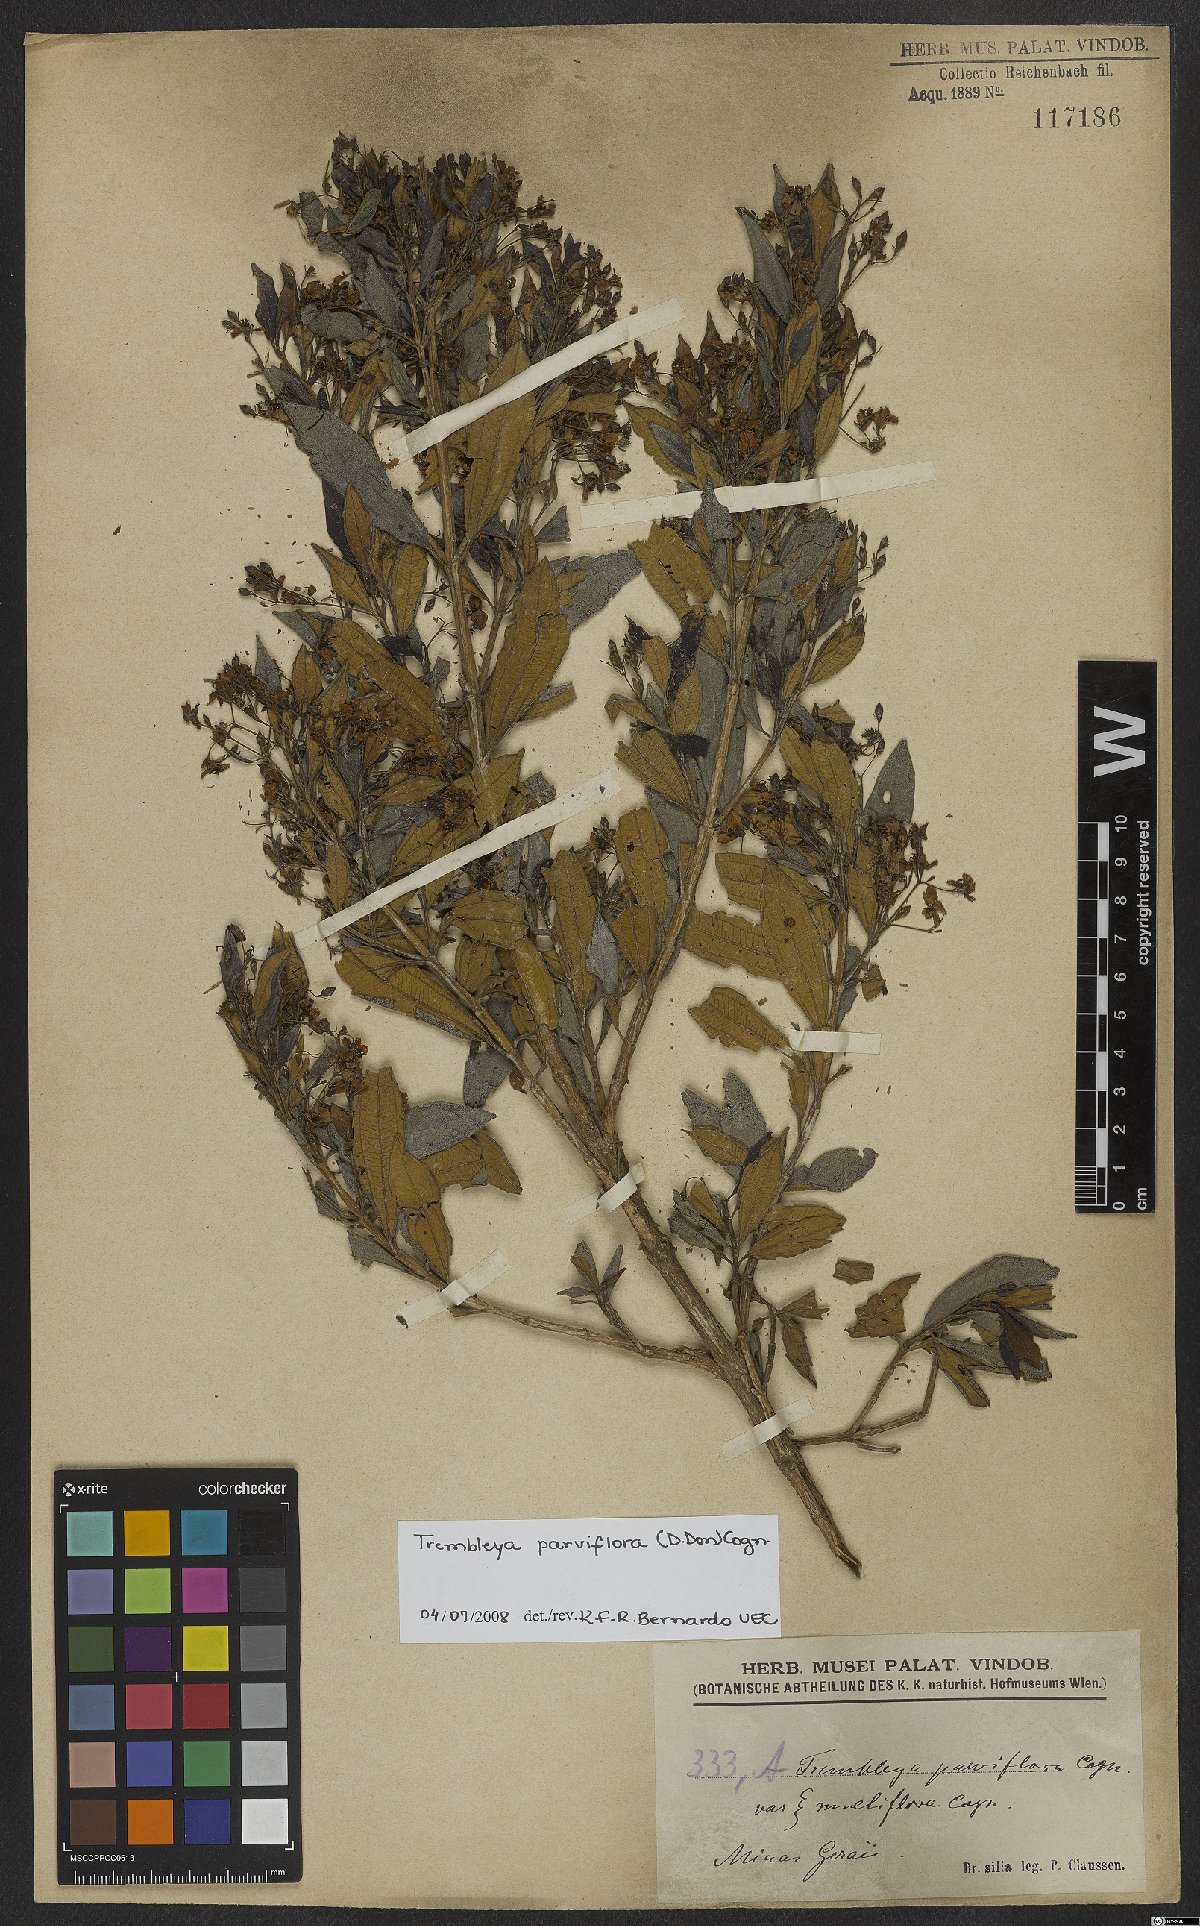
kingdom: Plantae
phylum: Tracheophyta
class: Magnoliopsida
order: Myrtales
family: Melastomataceae
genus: Microlicia
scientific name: Microlicia parviflora
